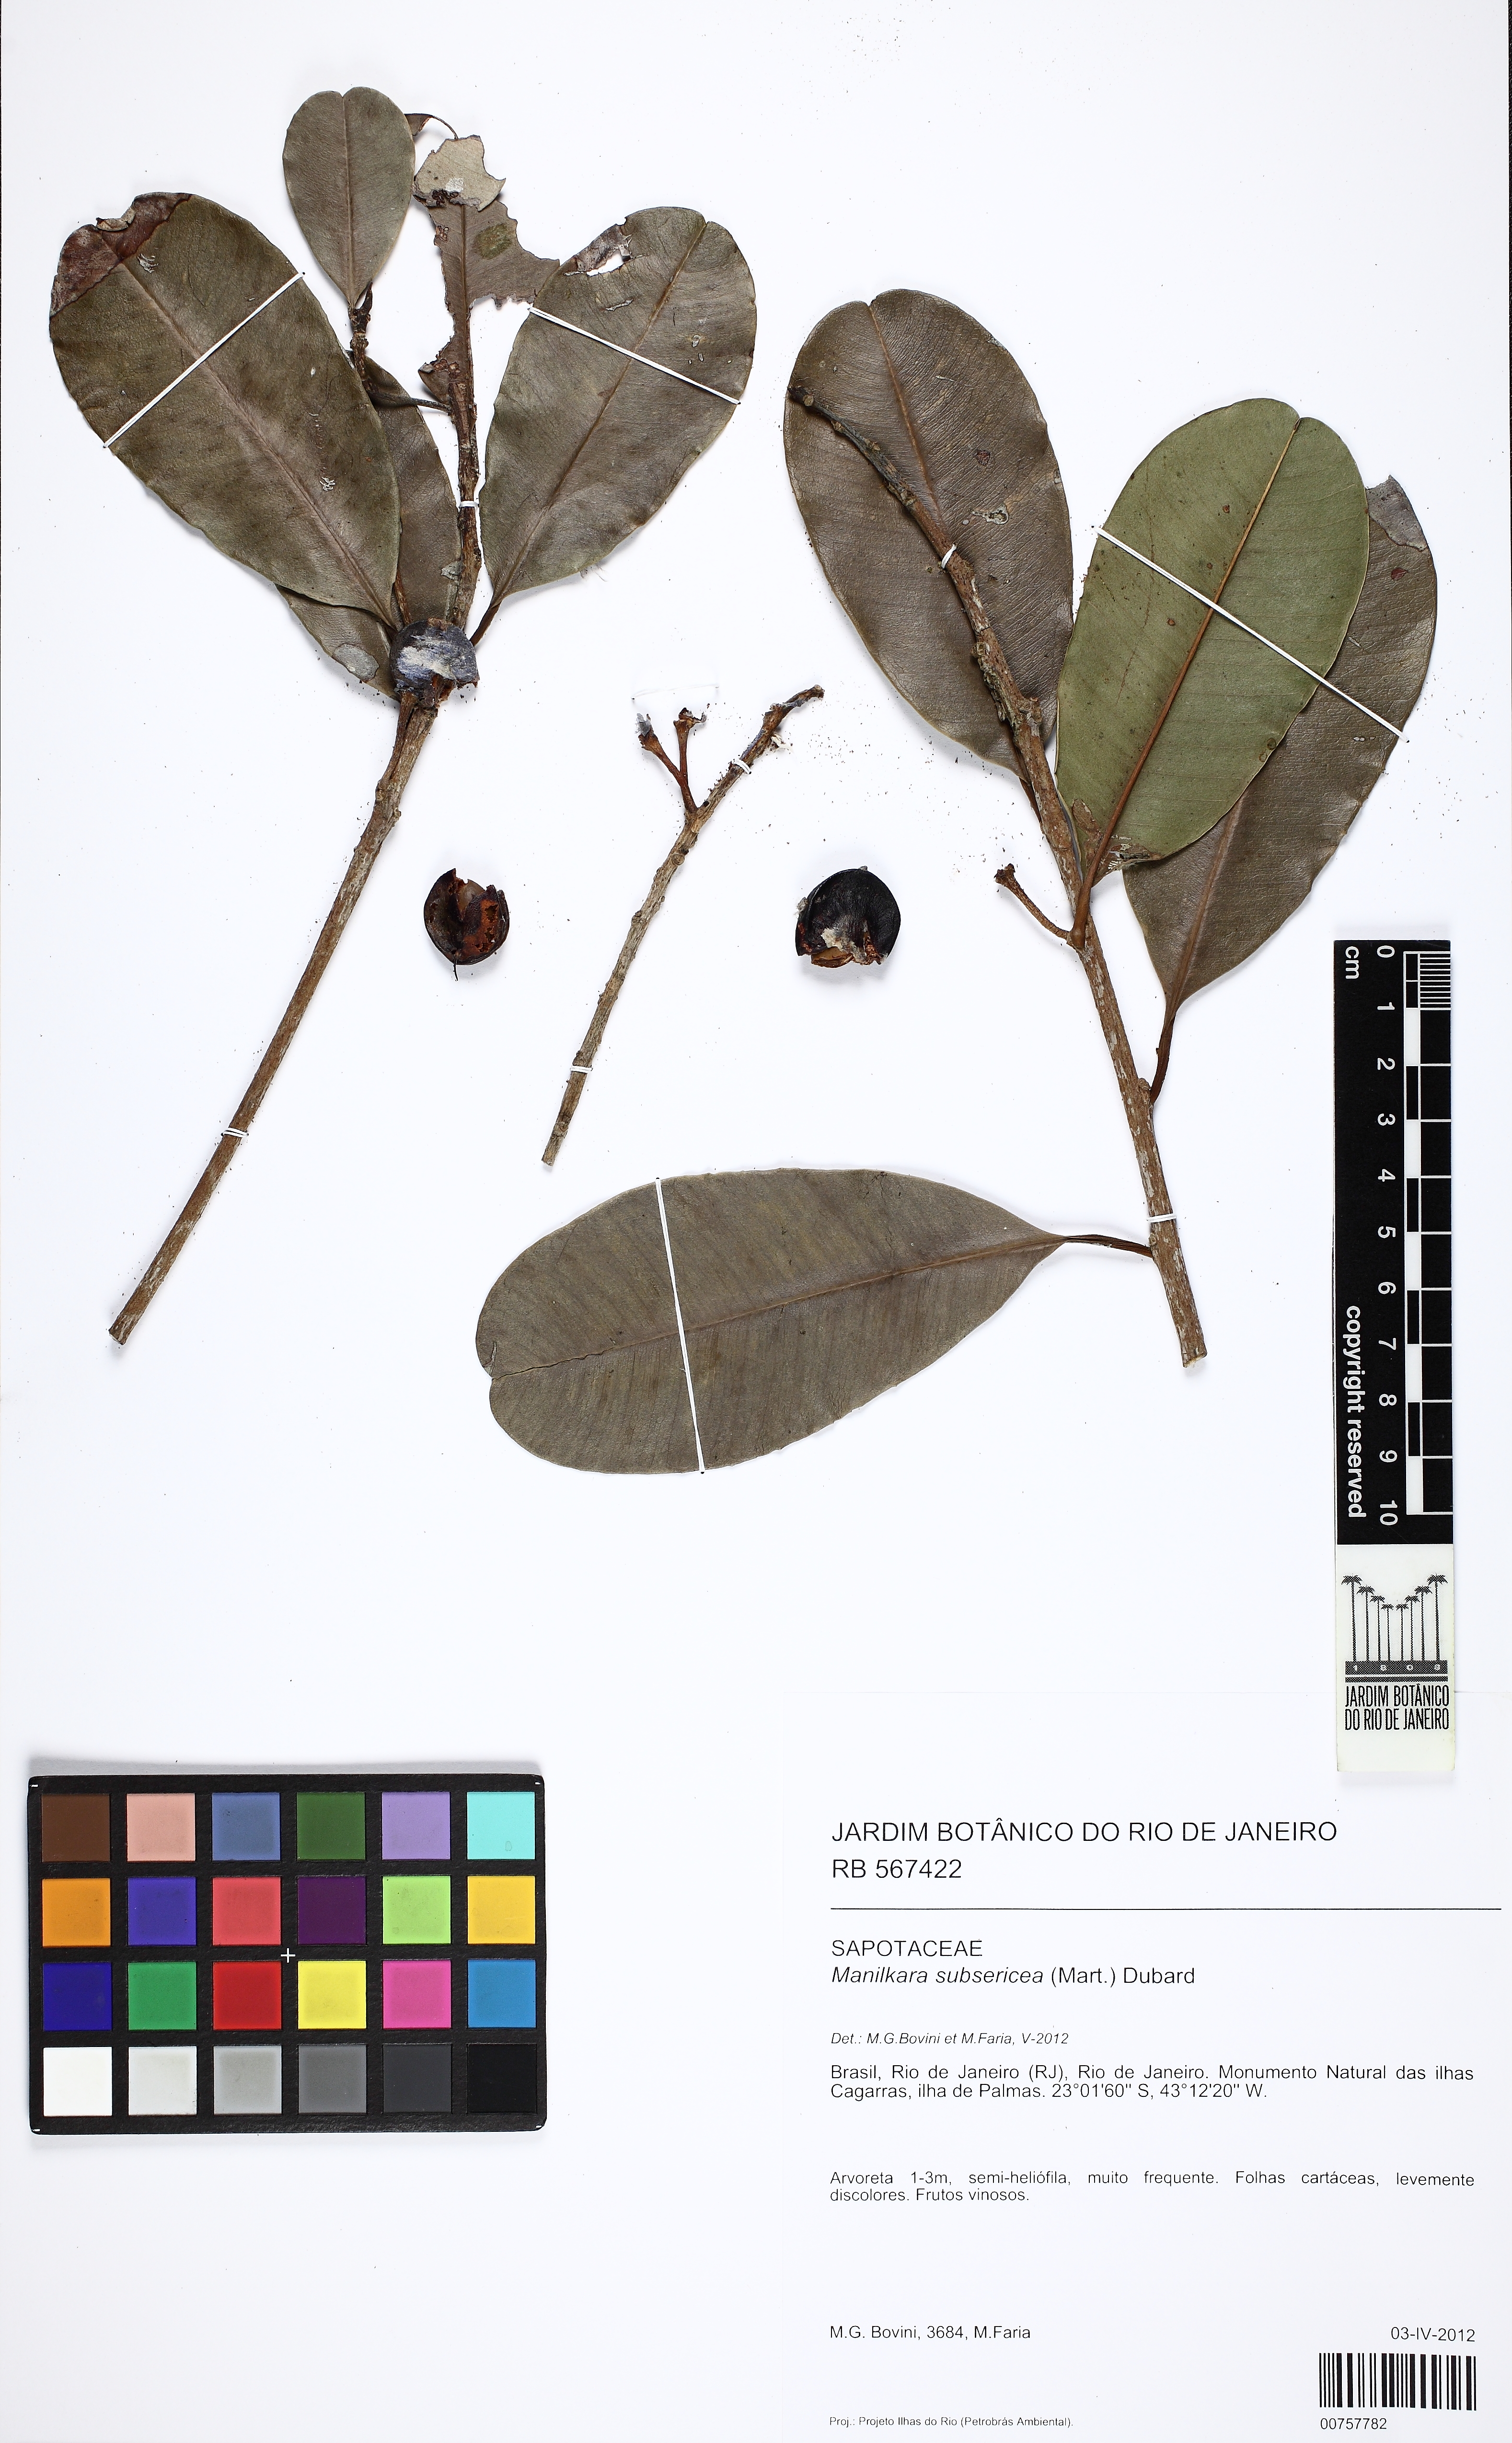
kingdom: Plantae
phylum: Tracheophyta
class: Magnoliopsida
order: Ericales
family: Sapotaceae
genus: Manilkara
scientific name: Manilkara subsericea
